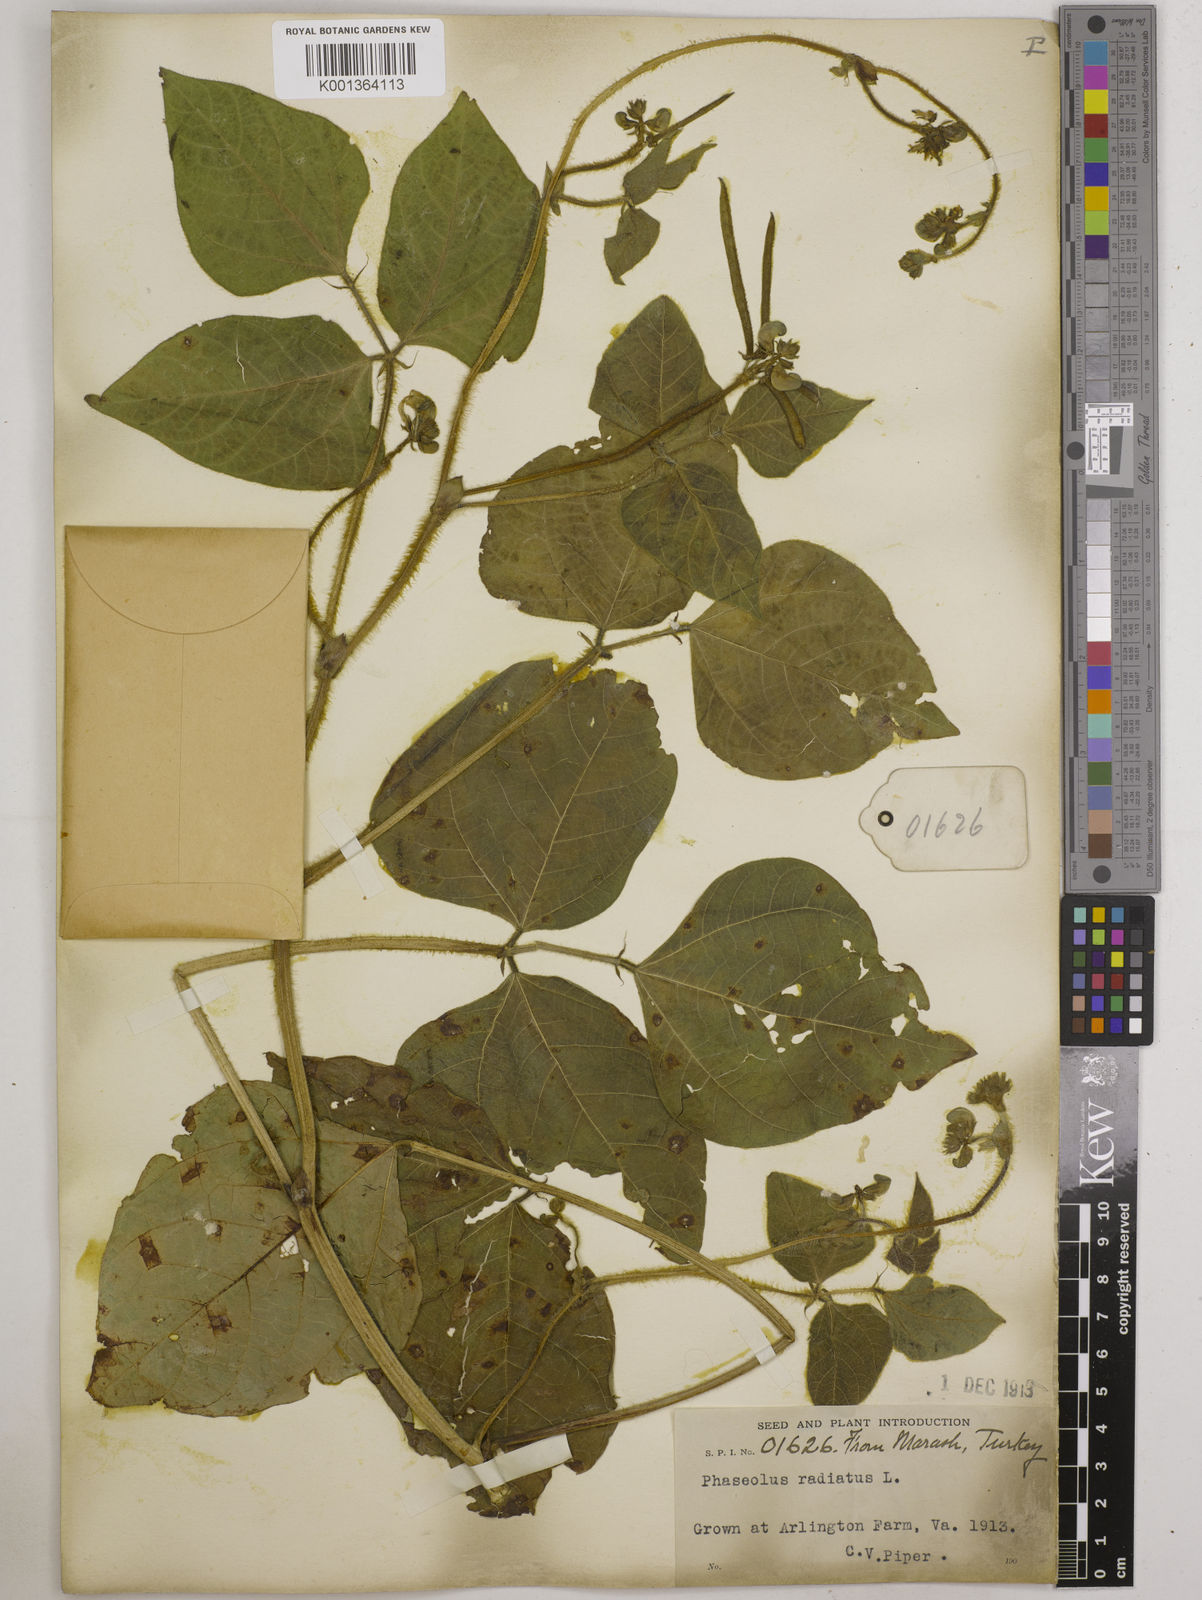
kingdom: Plantae
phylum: Tracheophyta
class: Magnoliopsida
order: Fabales
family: Fabaceae
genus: Vigna
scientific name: Vigna radiata
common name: Mung-bean
